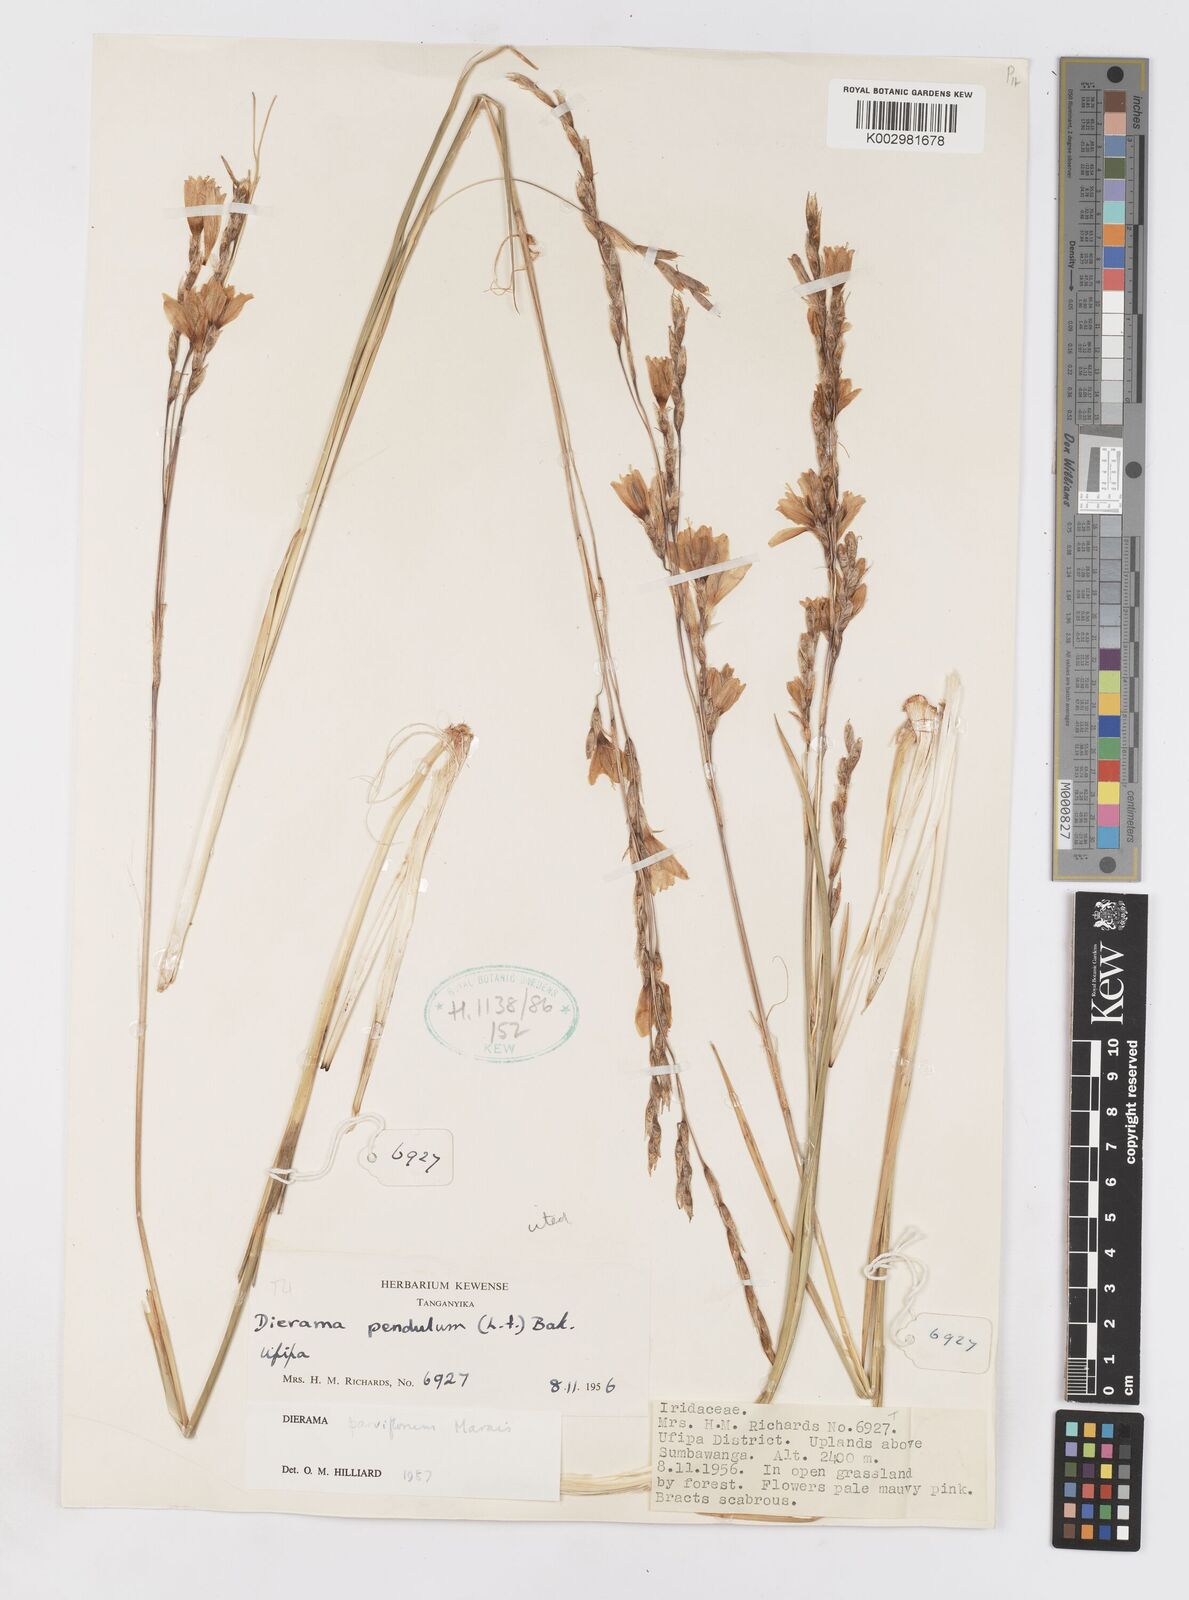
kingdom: Plantae
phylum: Tracheophyta
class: Liliopsida
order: Asparagales
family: Iridaceae
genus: Dierama
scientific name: Dierama parviflorum
